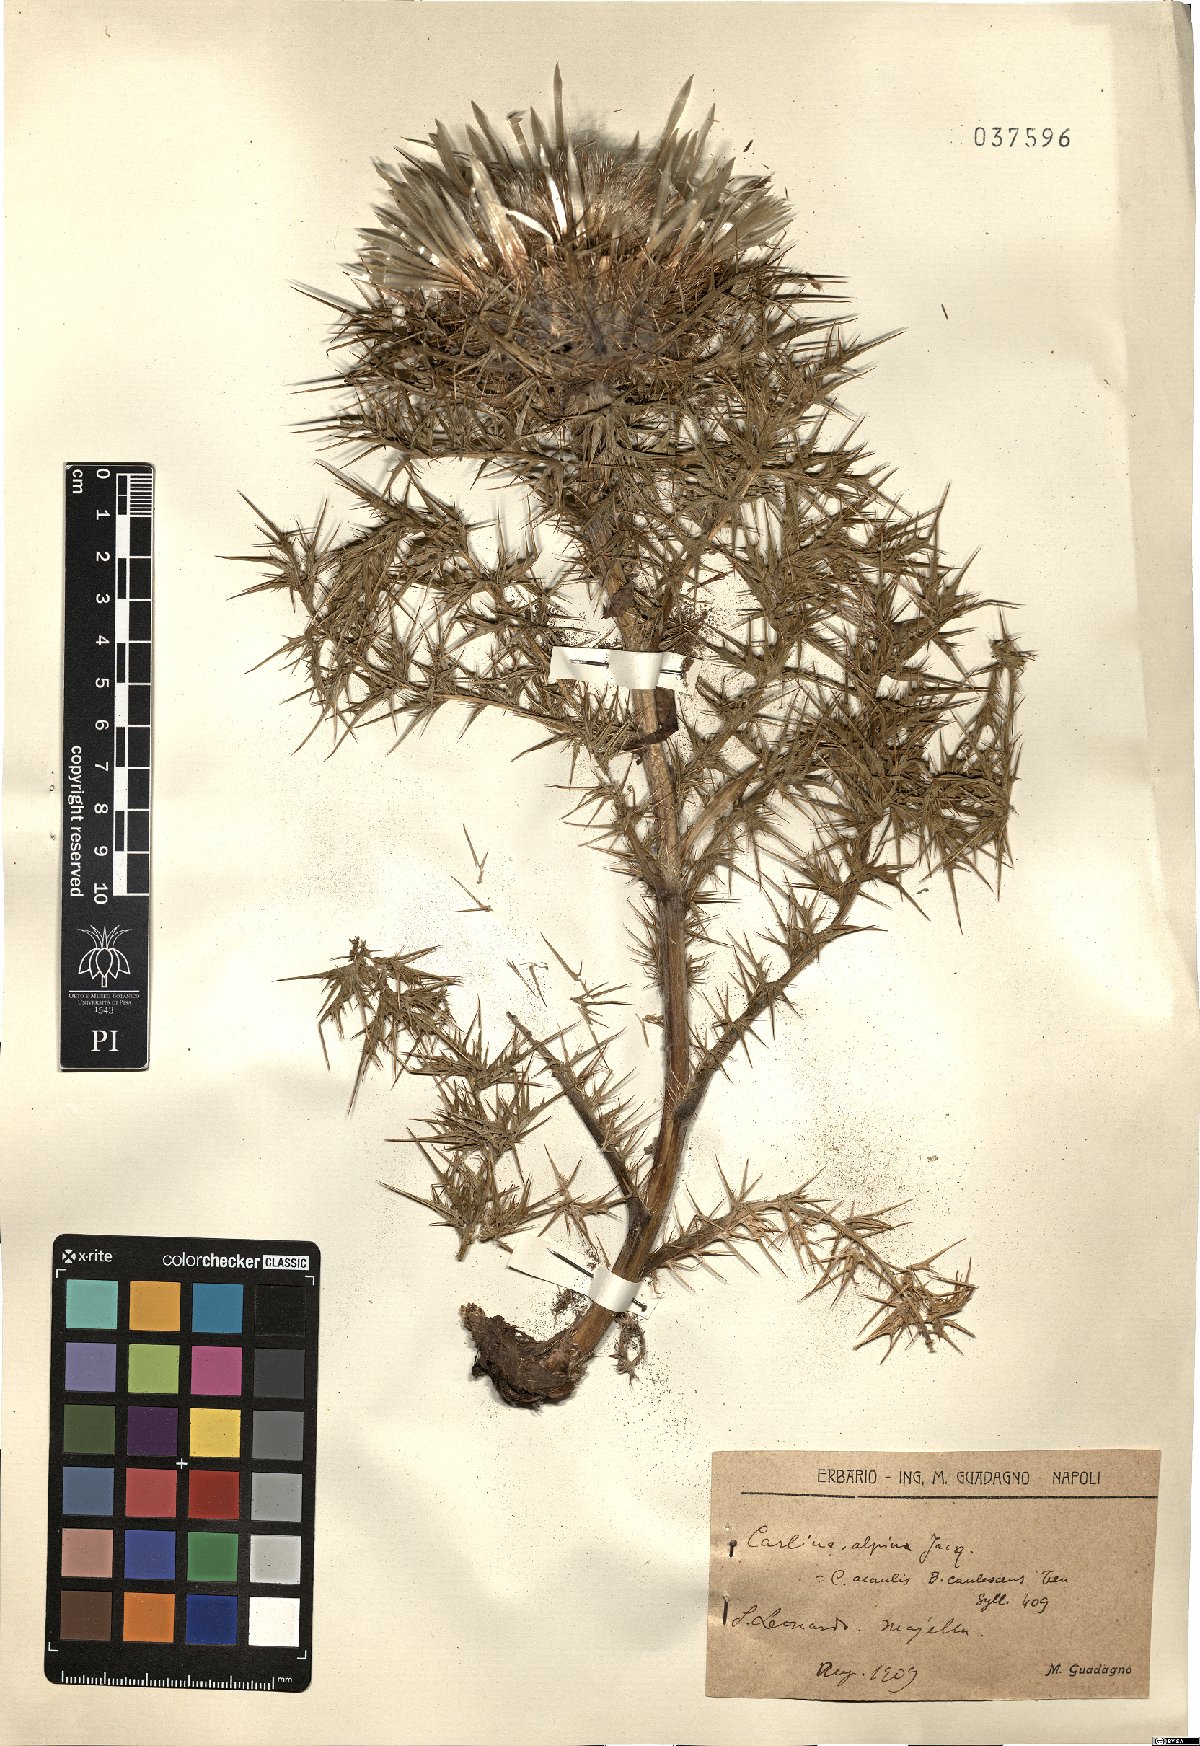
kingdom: Plantae
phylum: Tracheophyta
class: Magnoliopsida
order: Asterales
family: Asteraceae
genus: Carlina
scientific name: Carlina acaulis
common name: Stemless carline thistle
